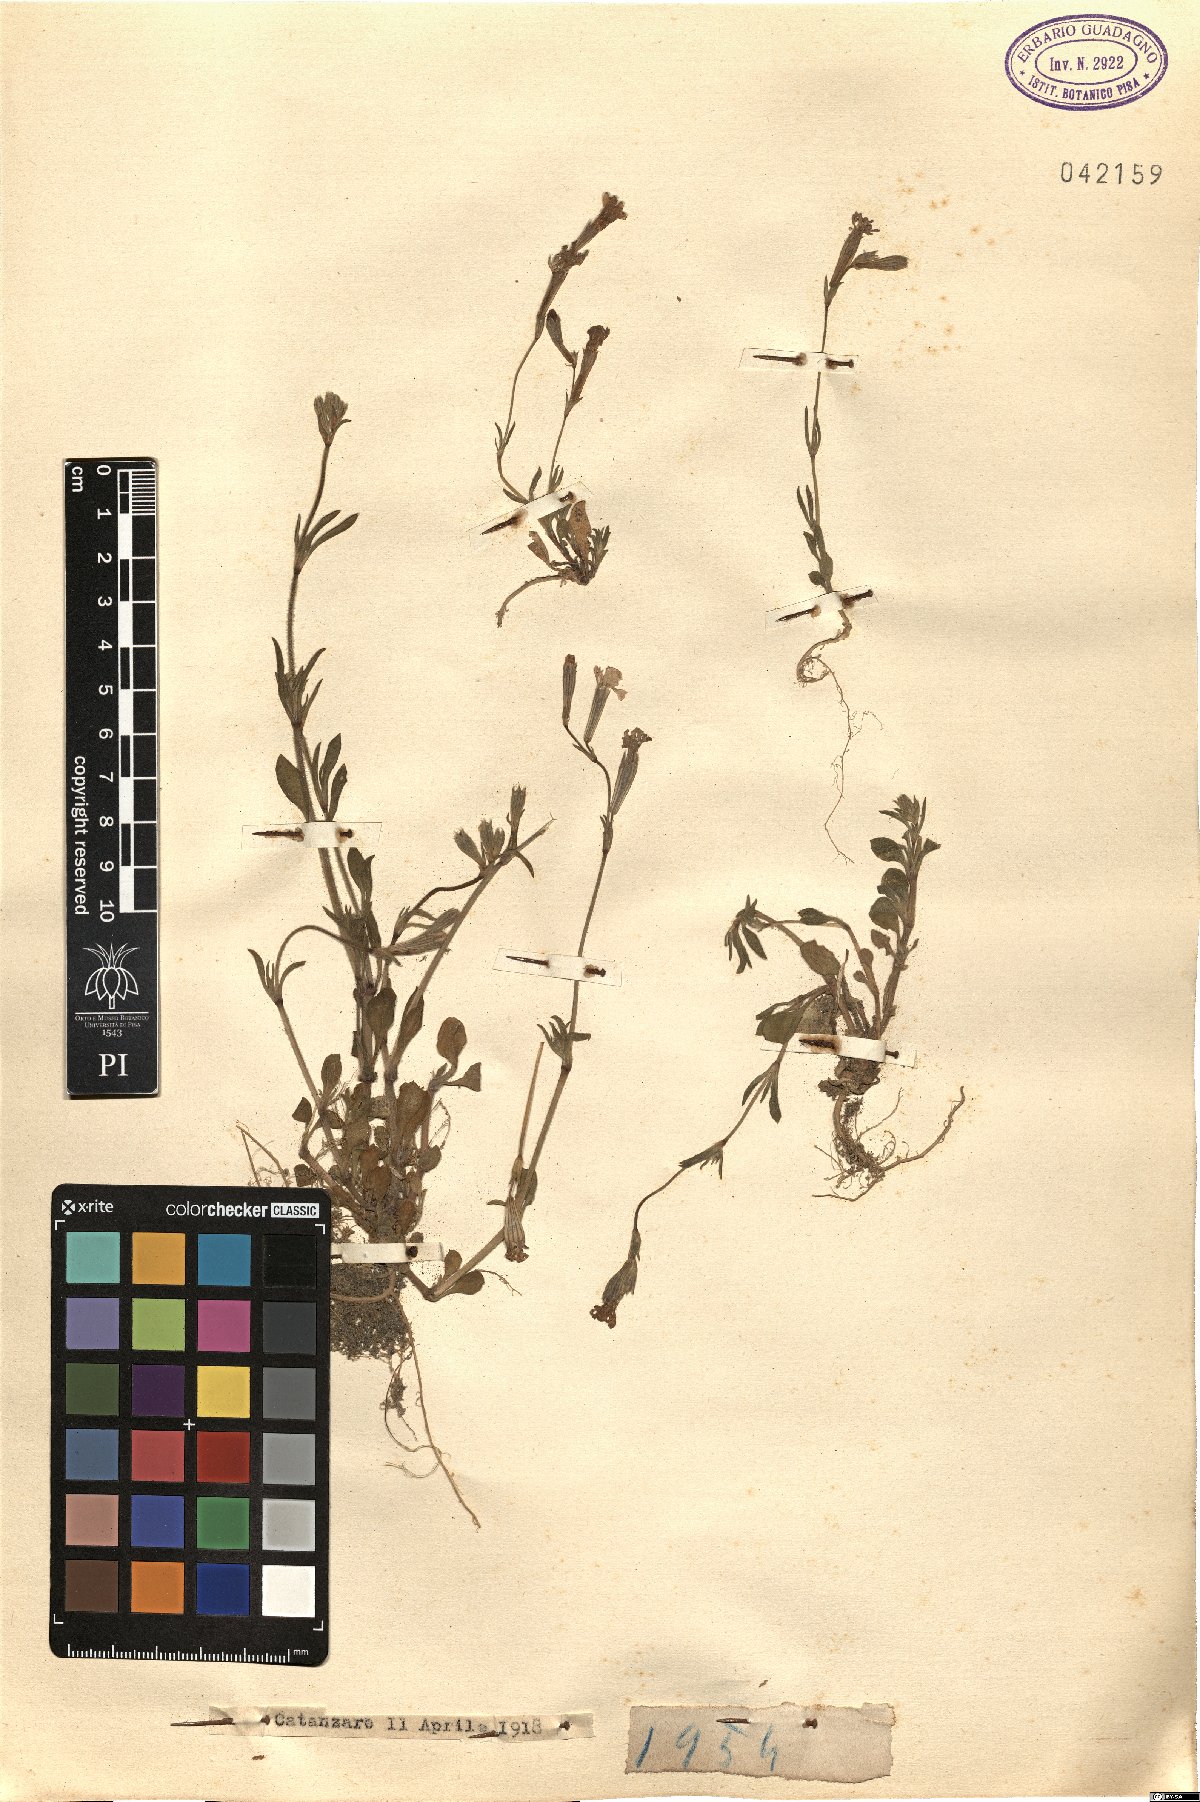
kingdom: Plantae
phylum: Tracheophyta
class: Magnoliopsida
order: Caryophyllales
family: Caryophyllaceae
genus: Silene
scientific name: Silene
